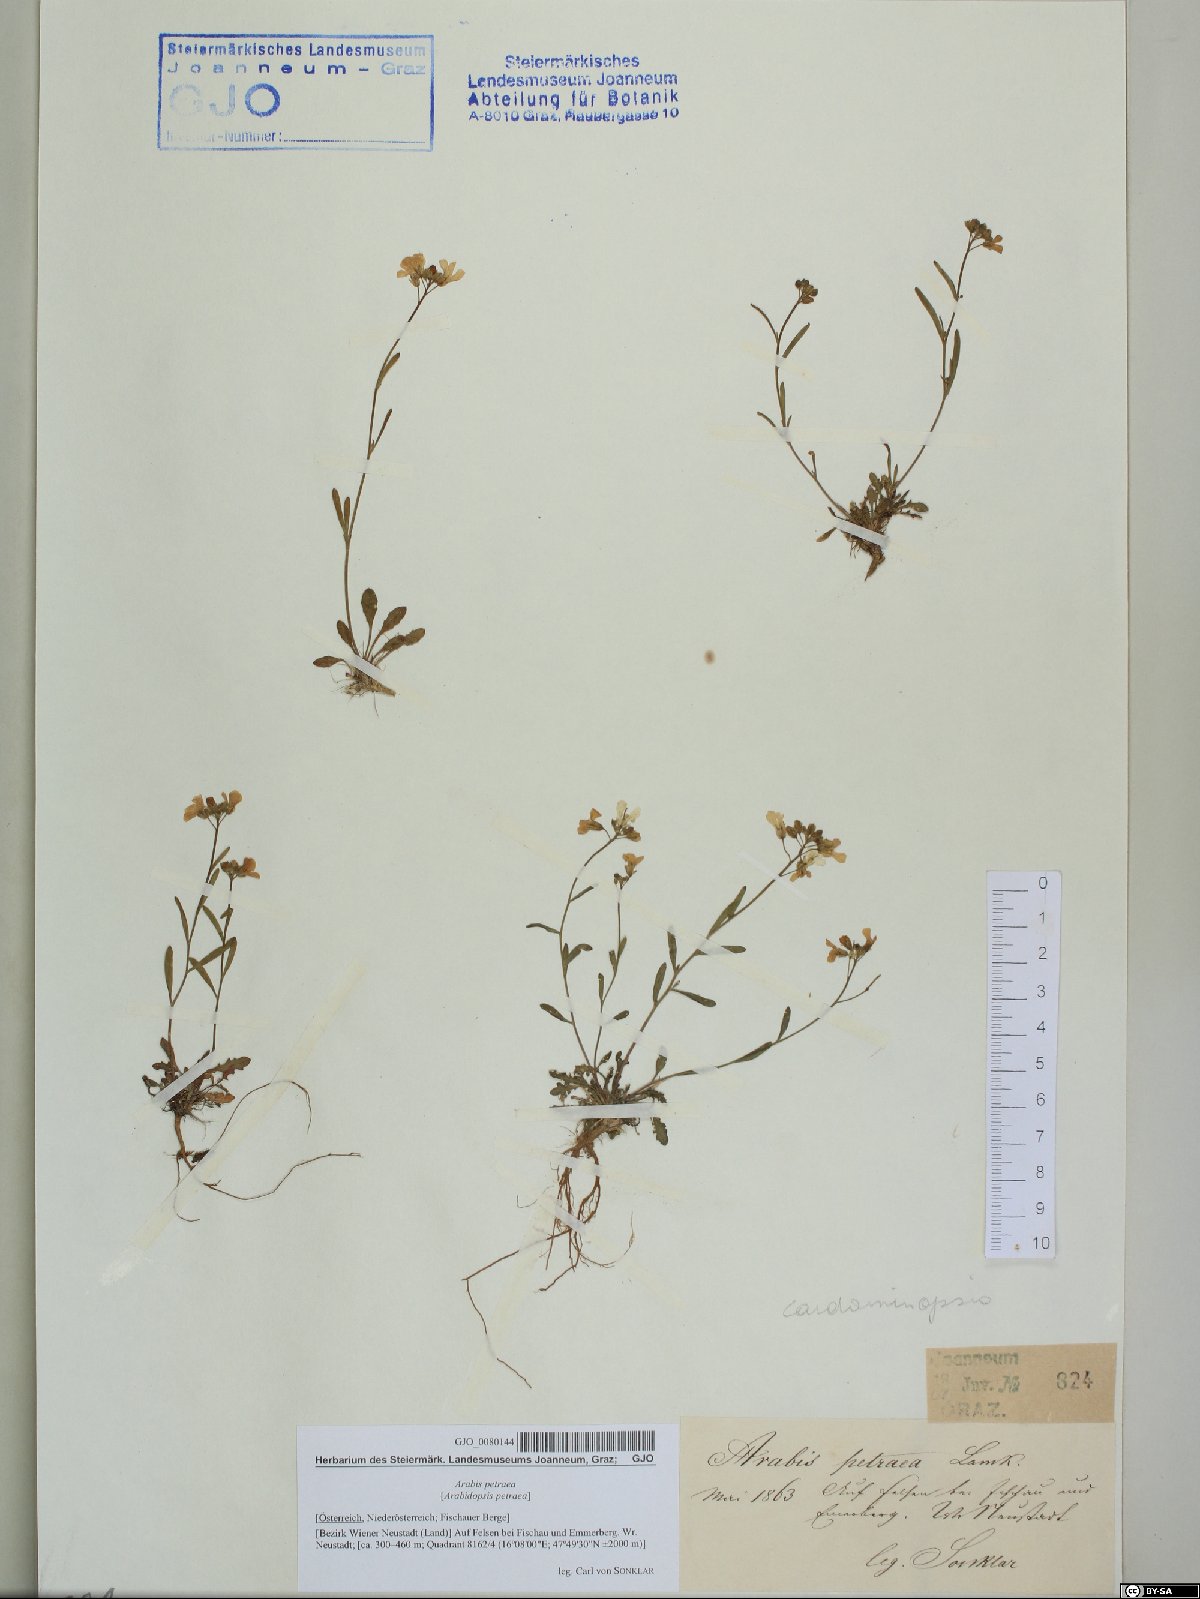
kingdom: Plantae
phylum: Tracheophyta
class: Magnoliopsida
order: Brassicales
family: Brassicaceae
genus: Arabidopsis
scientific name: Arabidopsis lyrata
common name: Lyrate rockcress
